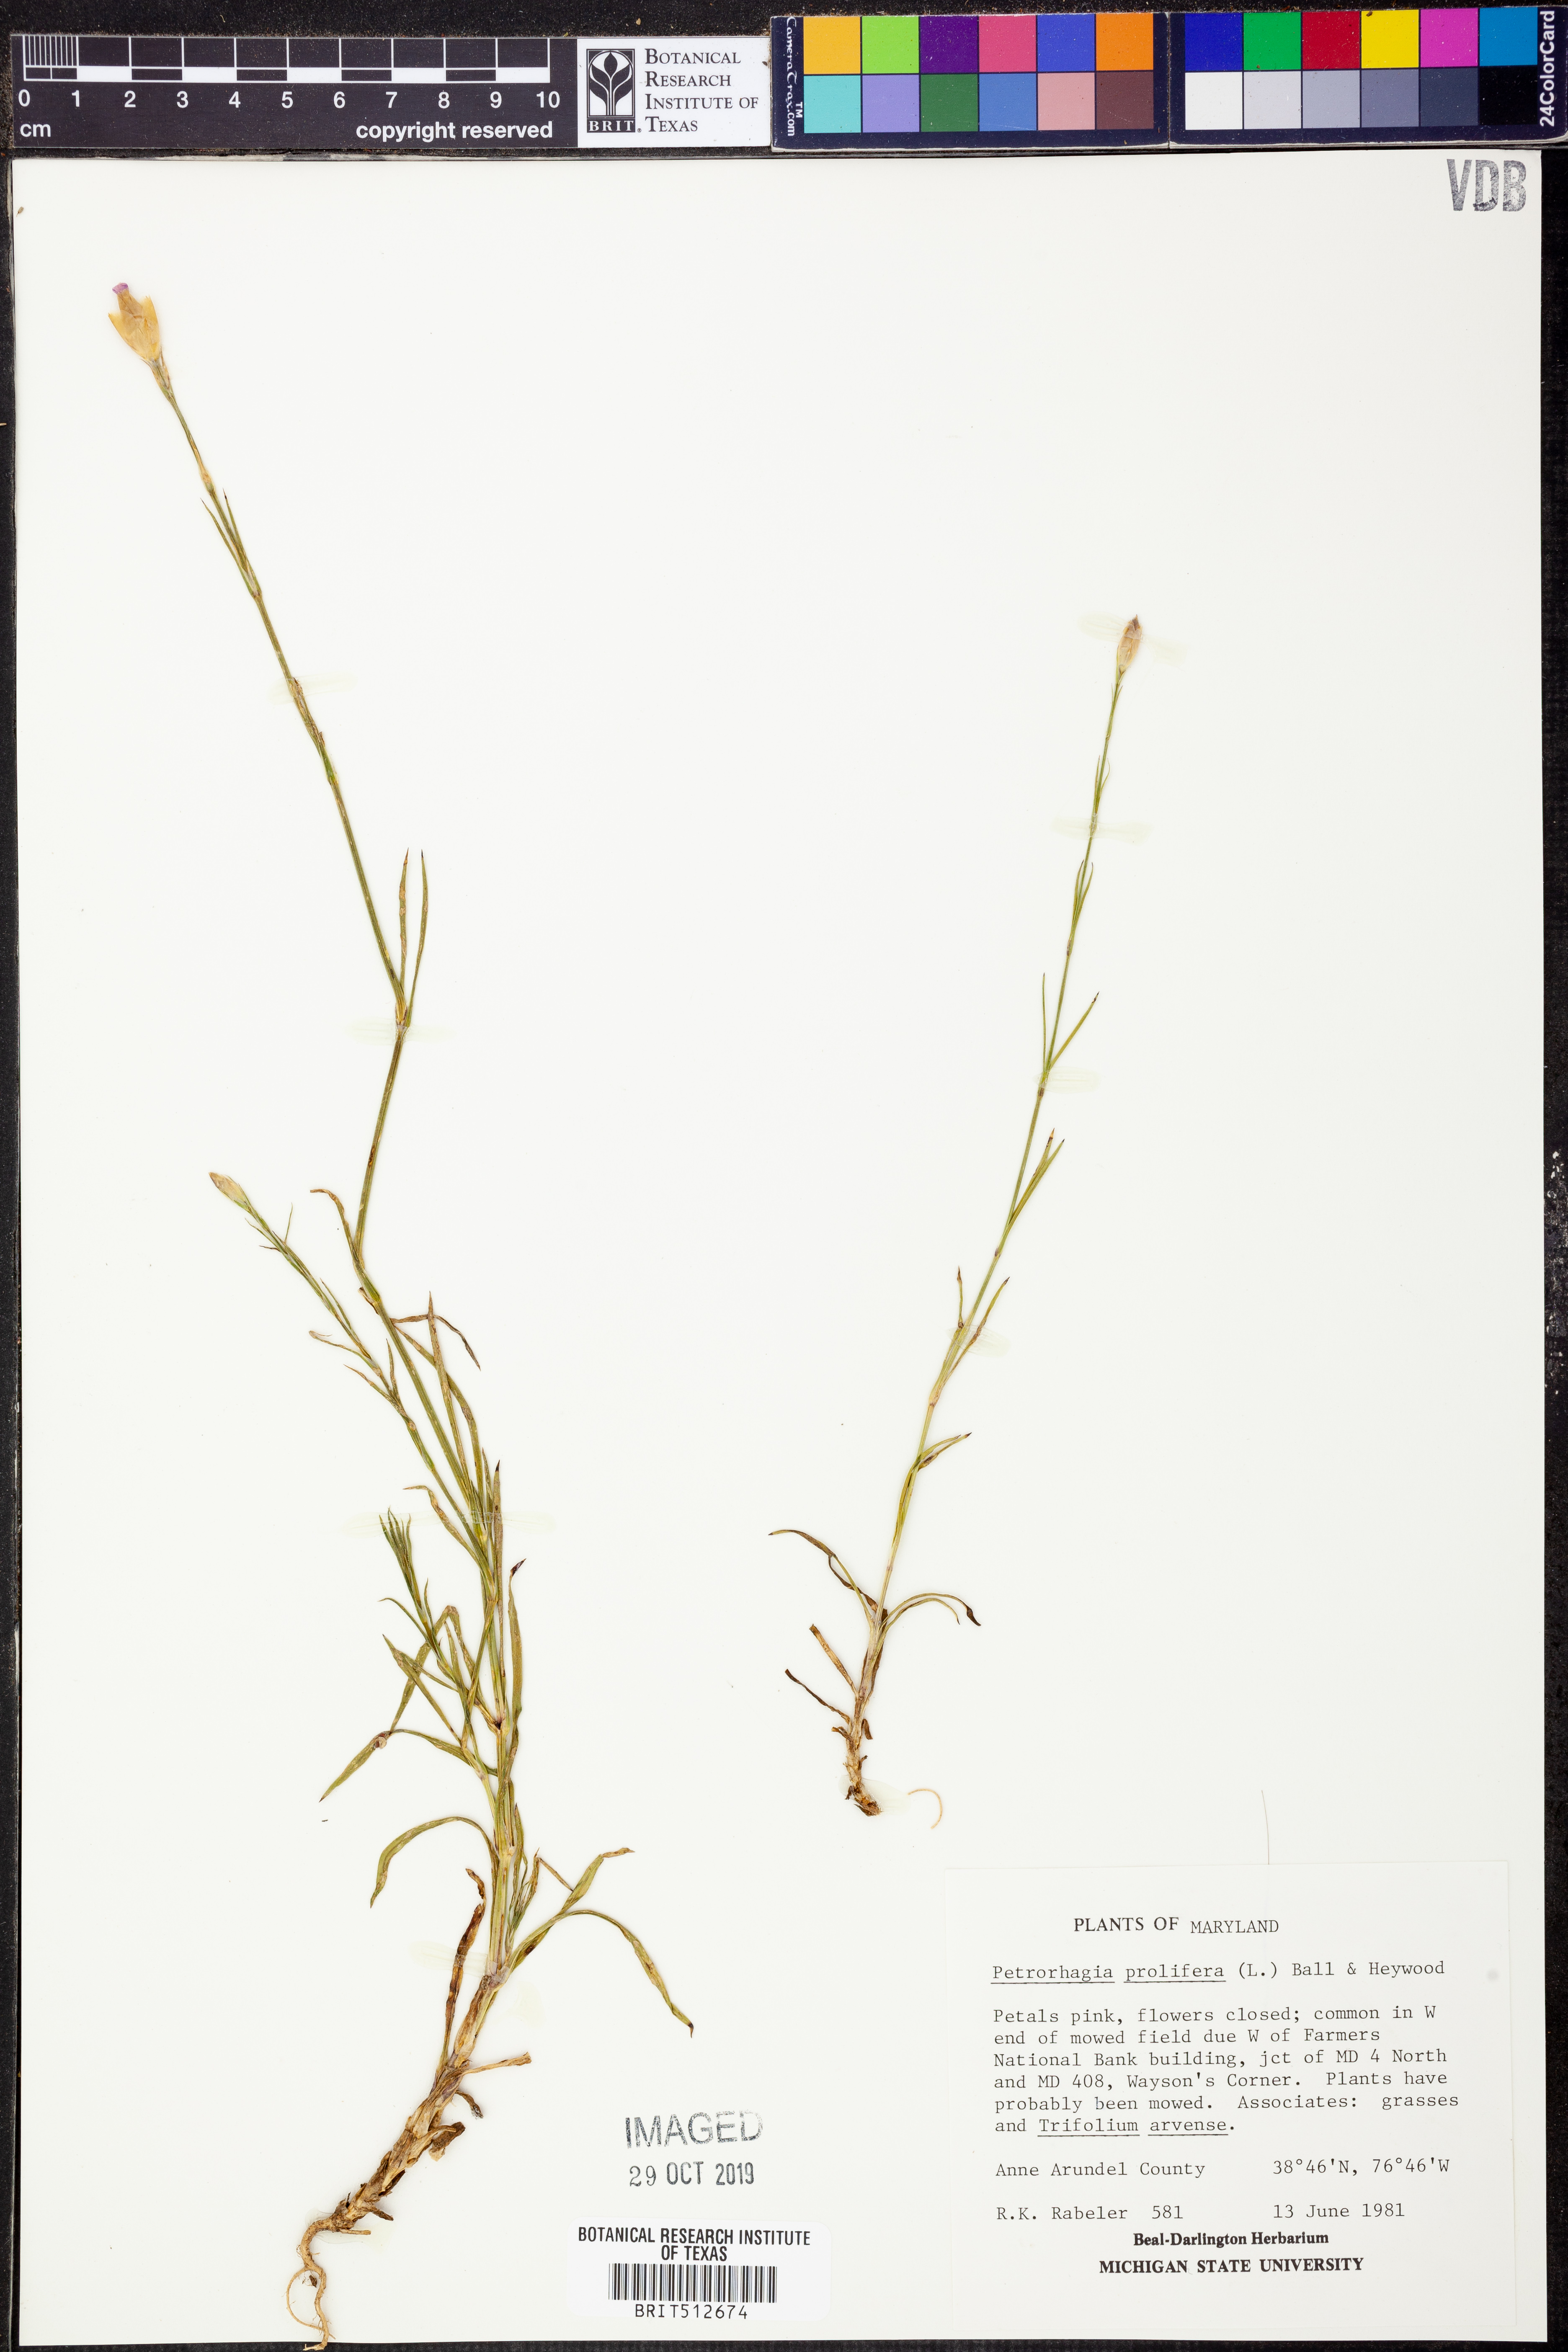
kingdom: Plantae
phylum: Tracheophyta
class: Magnoliopsida
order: Caryophyllales
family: Caryophyllaceae
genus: Petrorhagia
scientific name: Petrorhagia prolifera
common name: Proliferous pink
